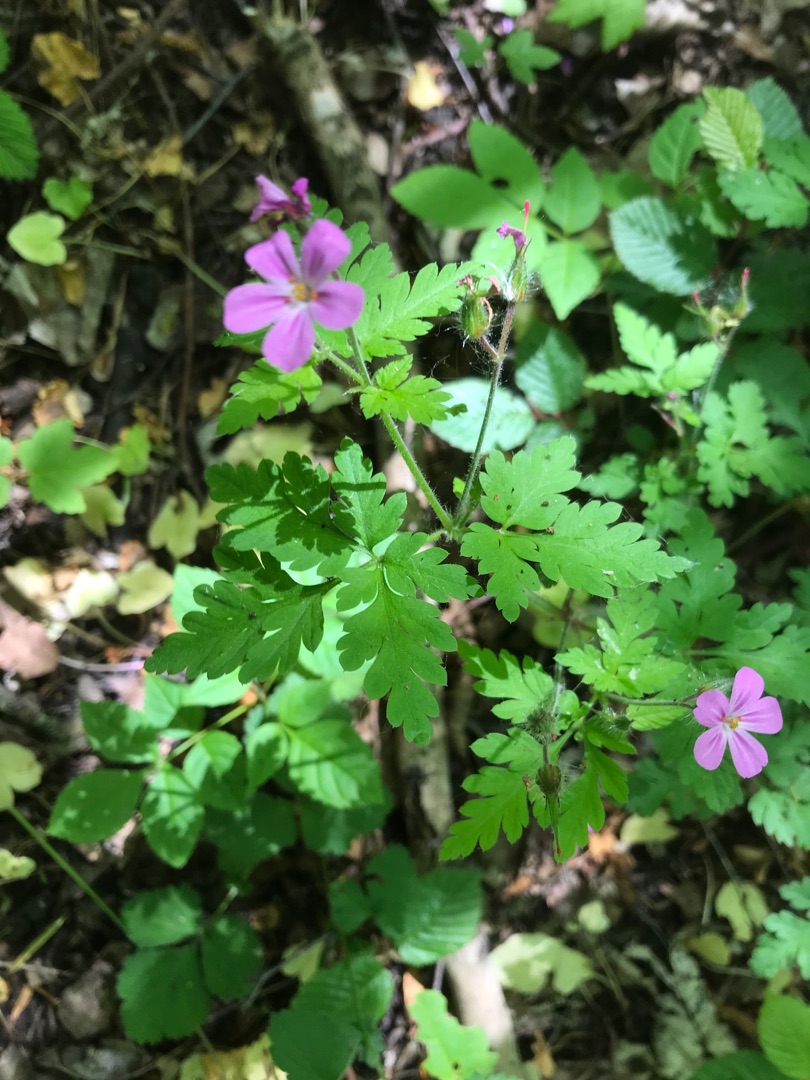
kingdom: Plantae
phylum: Tracheophyta
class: Magnoliopsida
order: Geraniales
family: Geraniaceae
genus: Geranium
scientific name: Geranium robertianum
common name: Stinkende storkenæb
